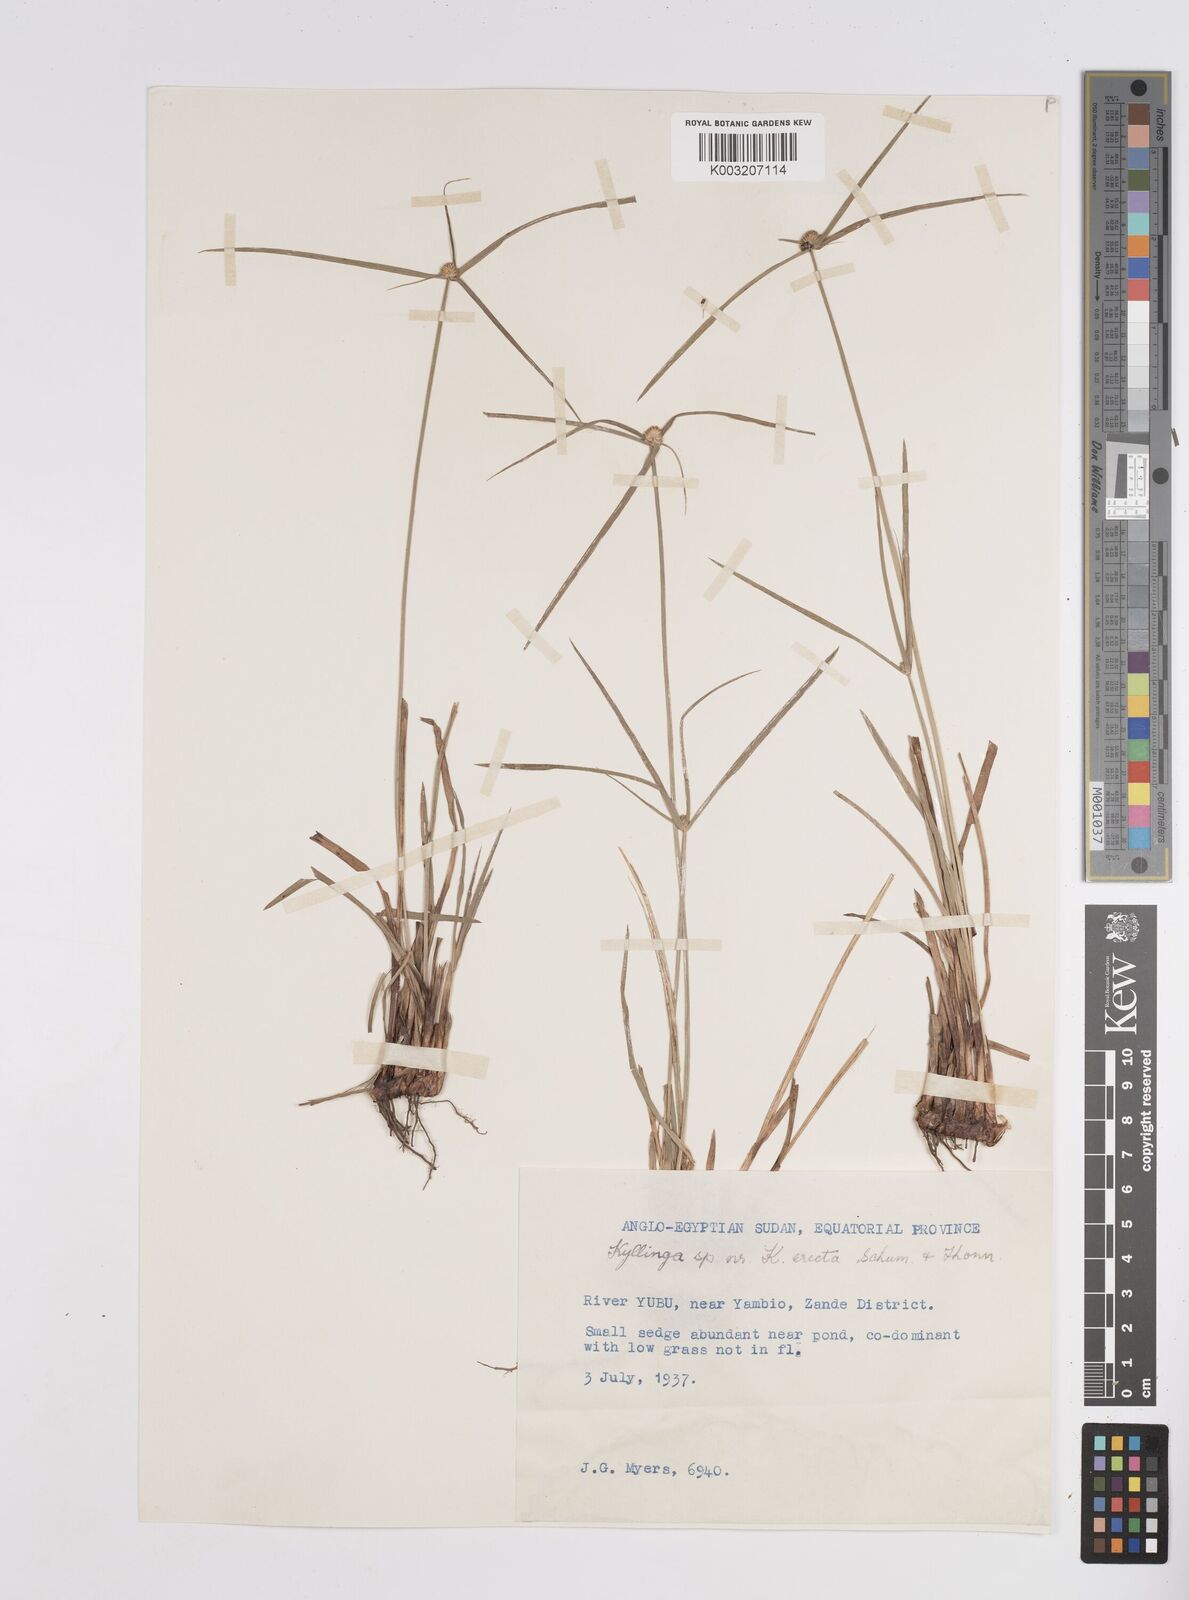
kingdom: Plantae
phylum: Tracheophyta
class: Liliopsida
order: Poales
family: Cyperaceae
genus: Cyperus
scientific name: Cyperus erectus
